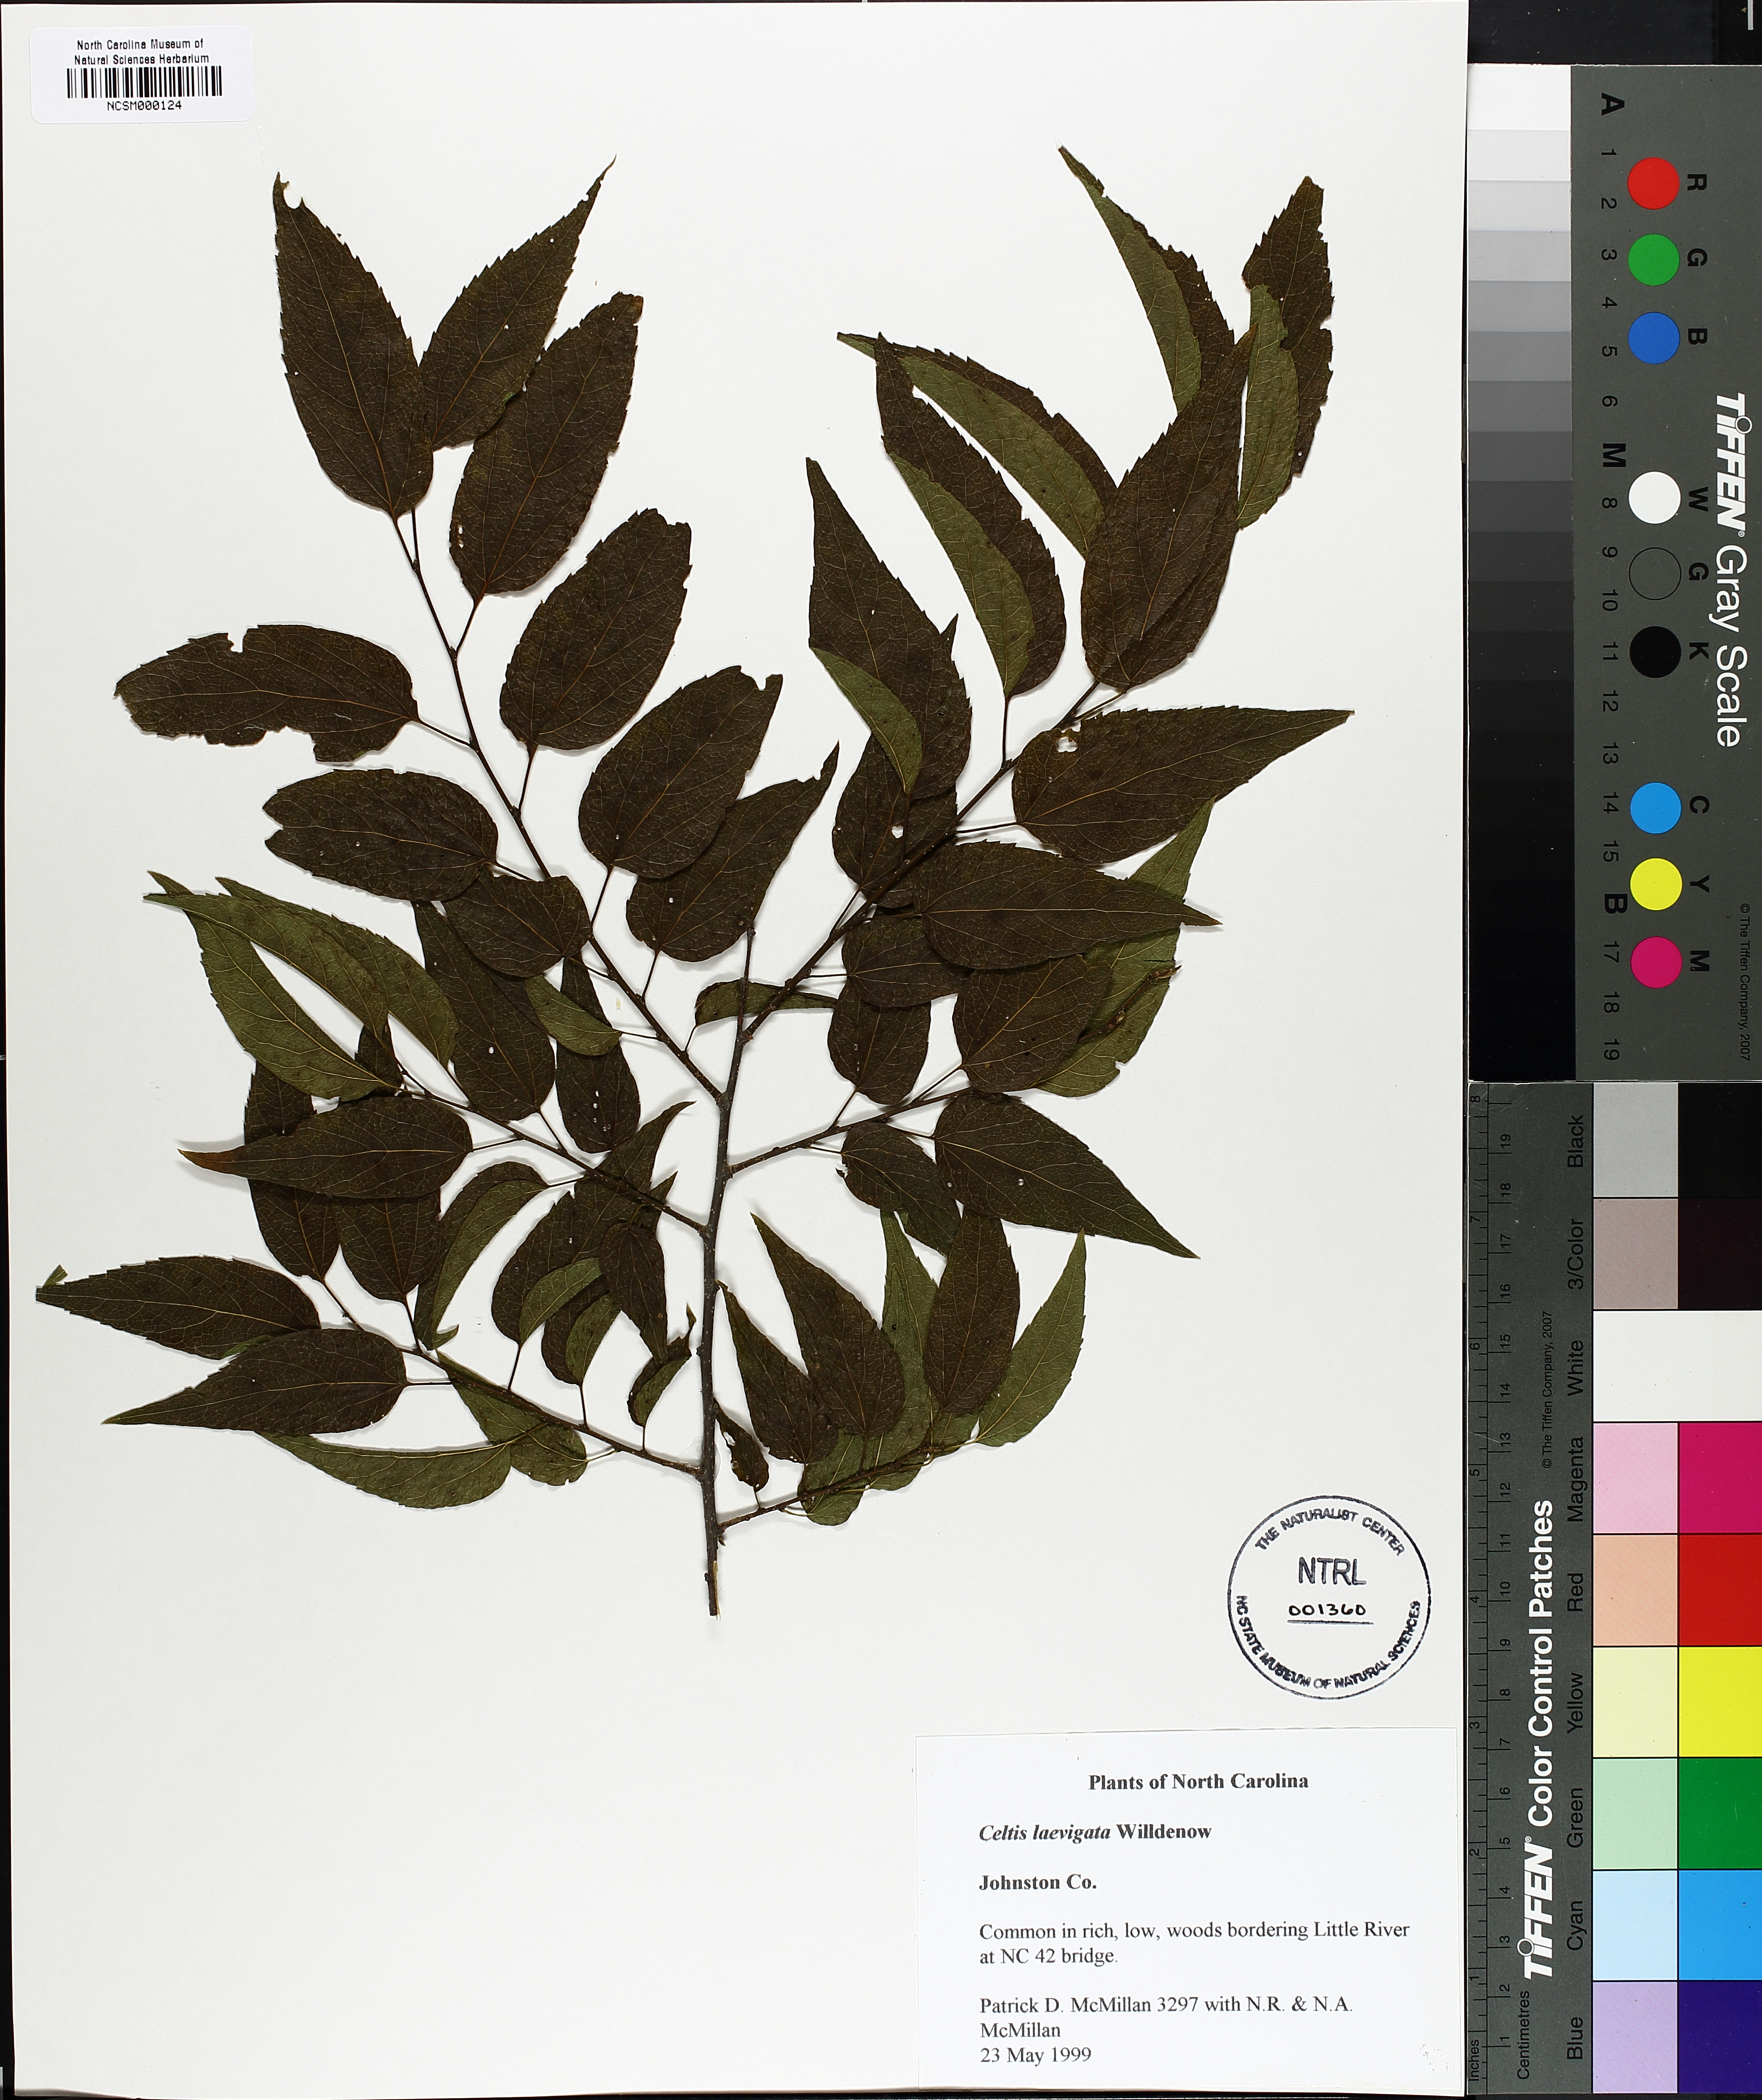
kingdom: Plantae
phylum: Tracheophyta
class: Magnoliopsida
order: Rosales
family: Cannabaceae
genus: Celtis
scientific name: Celtis laevigata
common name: Sugarberry
